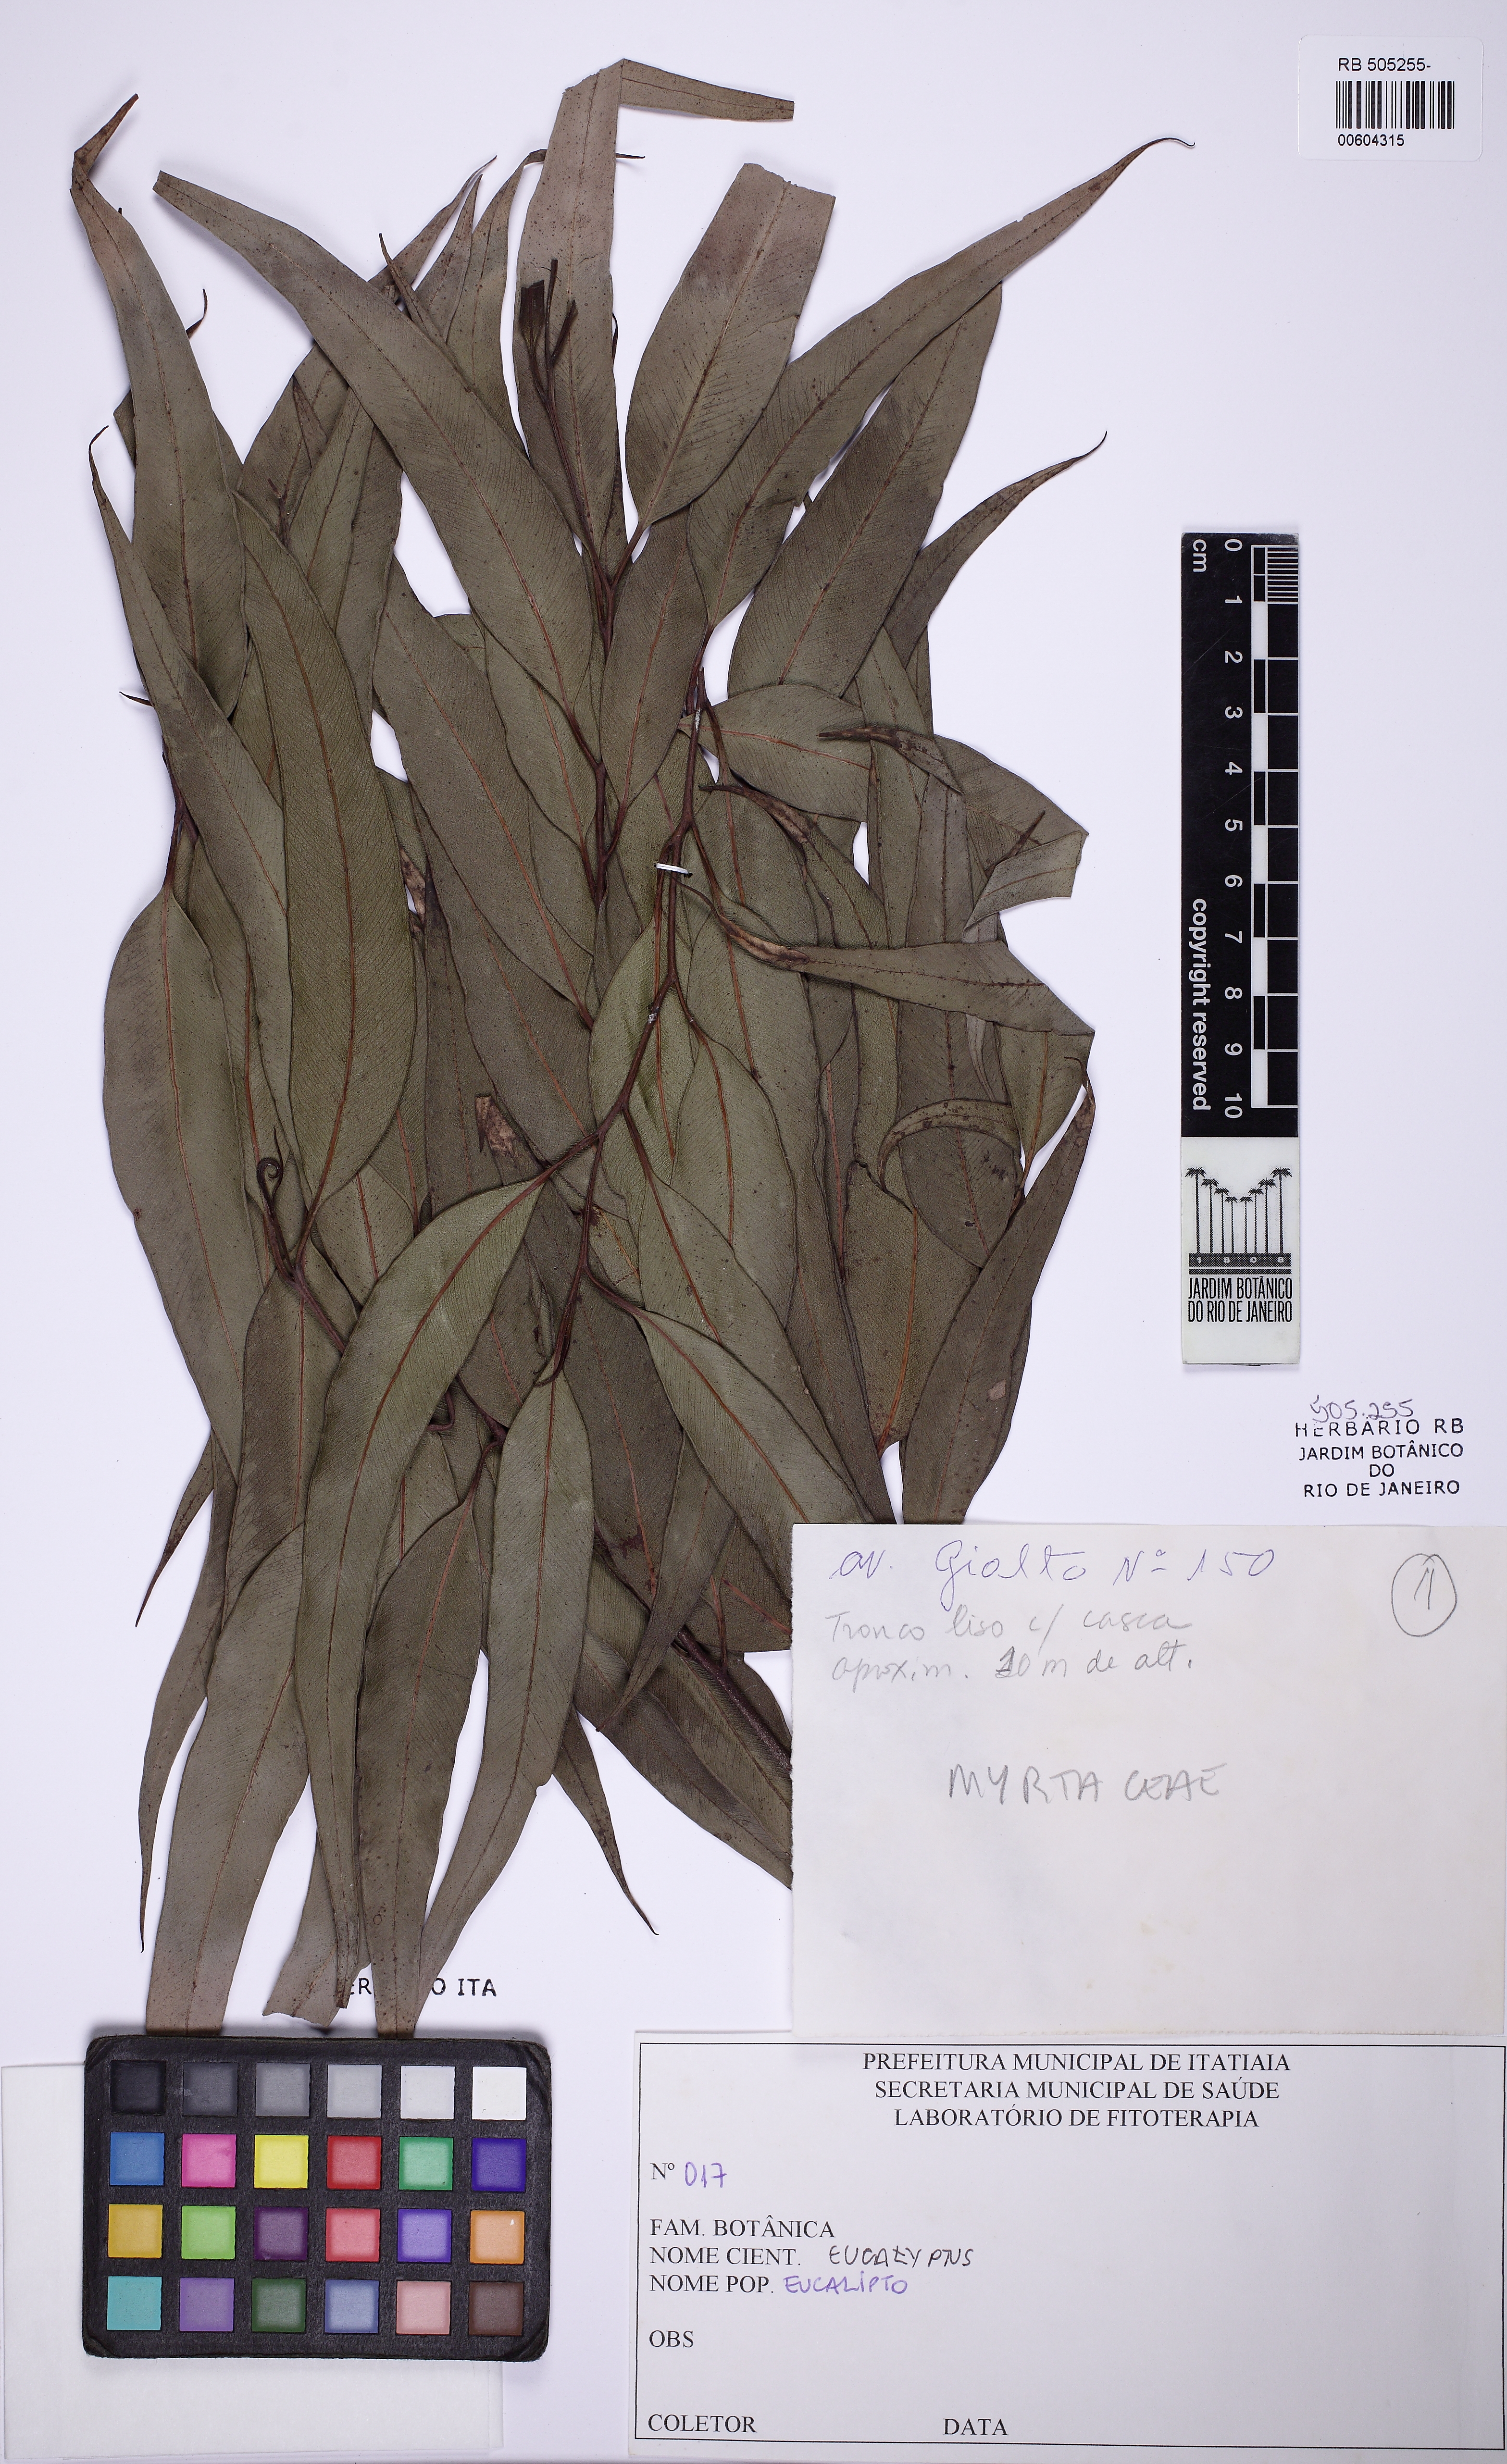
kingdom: Plantae
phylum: Tracheophyta
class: Magnoliopsida
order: Myrtales
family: Myrtaceae
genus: Eucalyptus
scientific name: Eucalyptus
